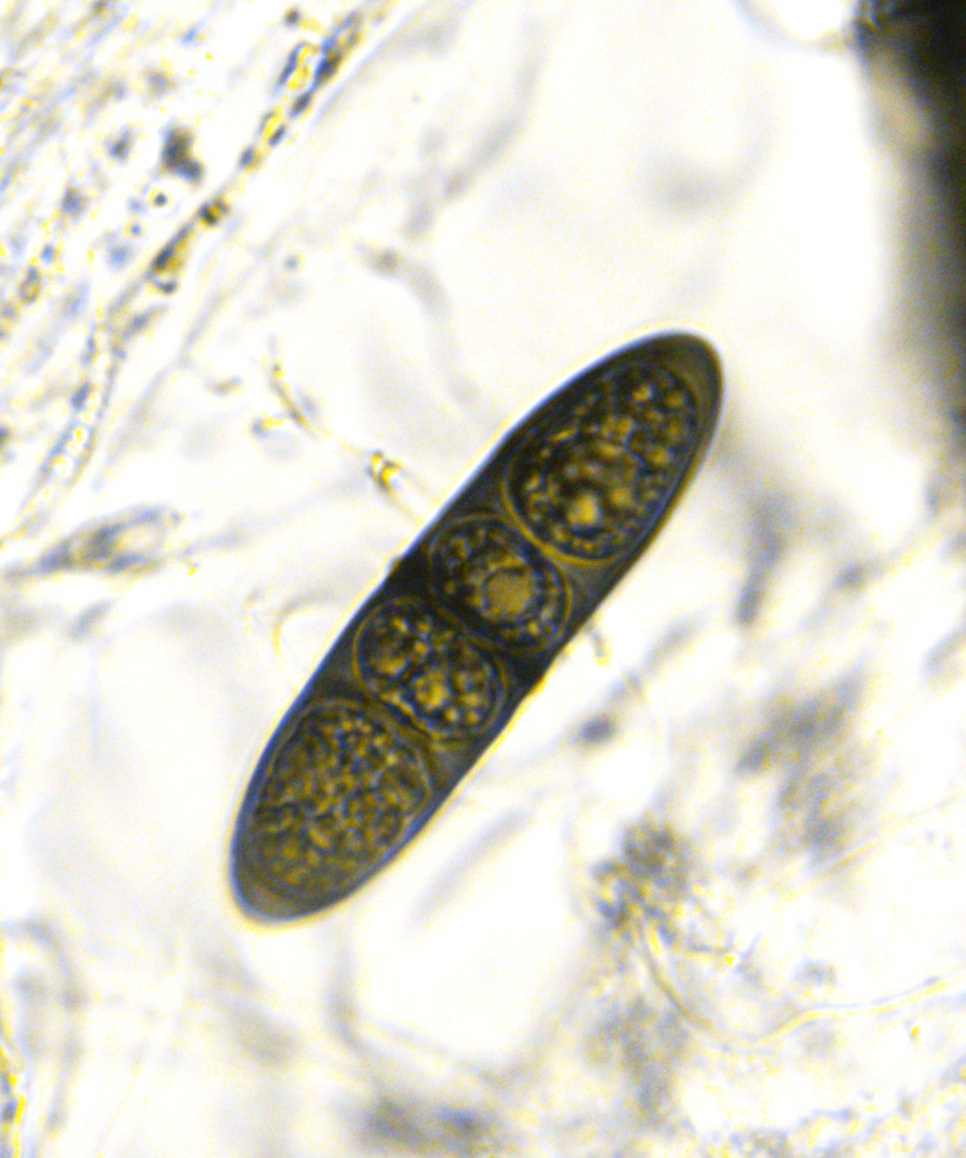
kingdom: Fungi
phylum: Ascomycota
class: Dothideomycetes
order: Pleosporales
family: Massariaceae
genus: Massaria
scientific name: Massaria inquinans
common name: ahorn-kulvulkan
